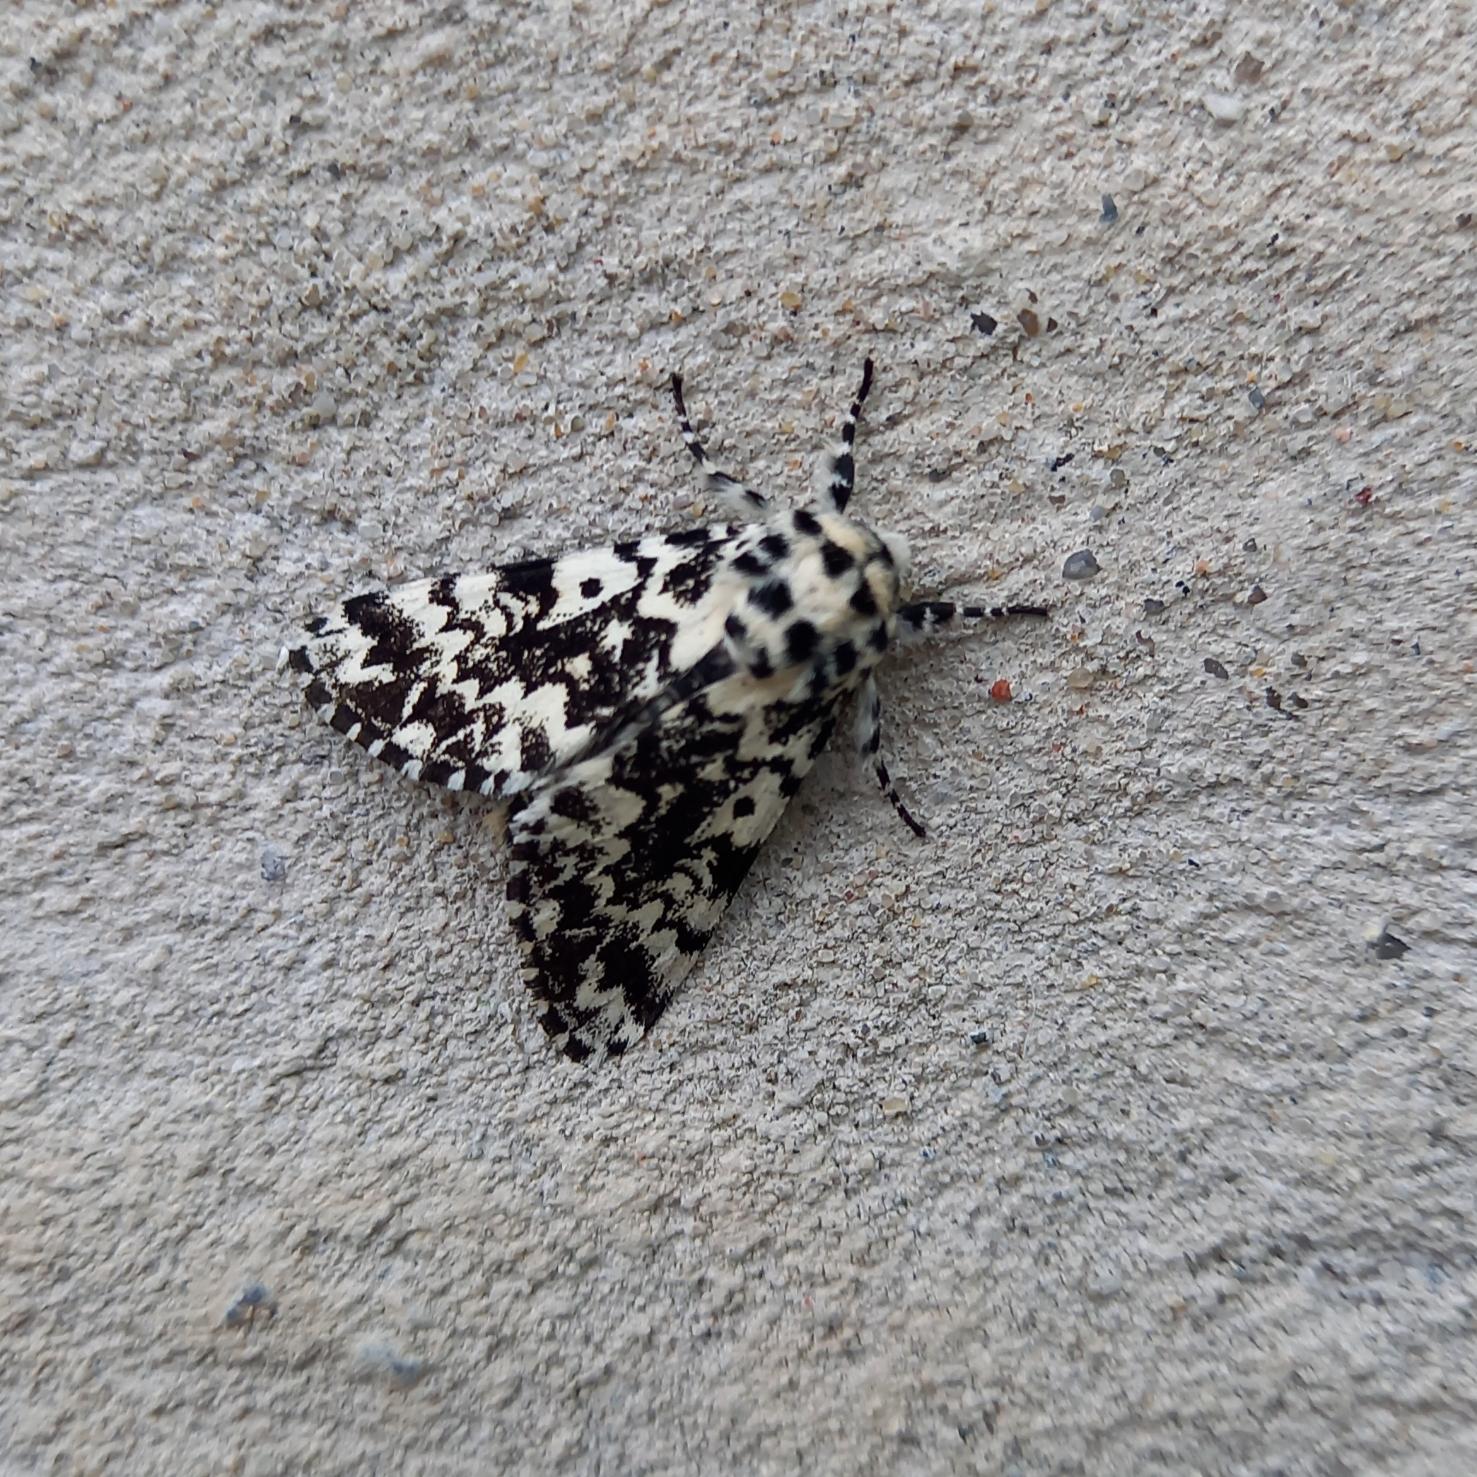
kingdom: Animalia
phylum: Arthropoda
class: Insecta
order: Lepidoptera
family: Noctuidae
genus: Panthea
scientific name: Panthea coenobita
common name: Nonneugle
